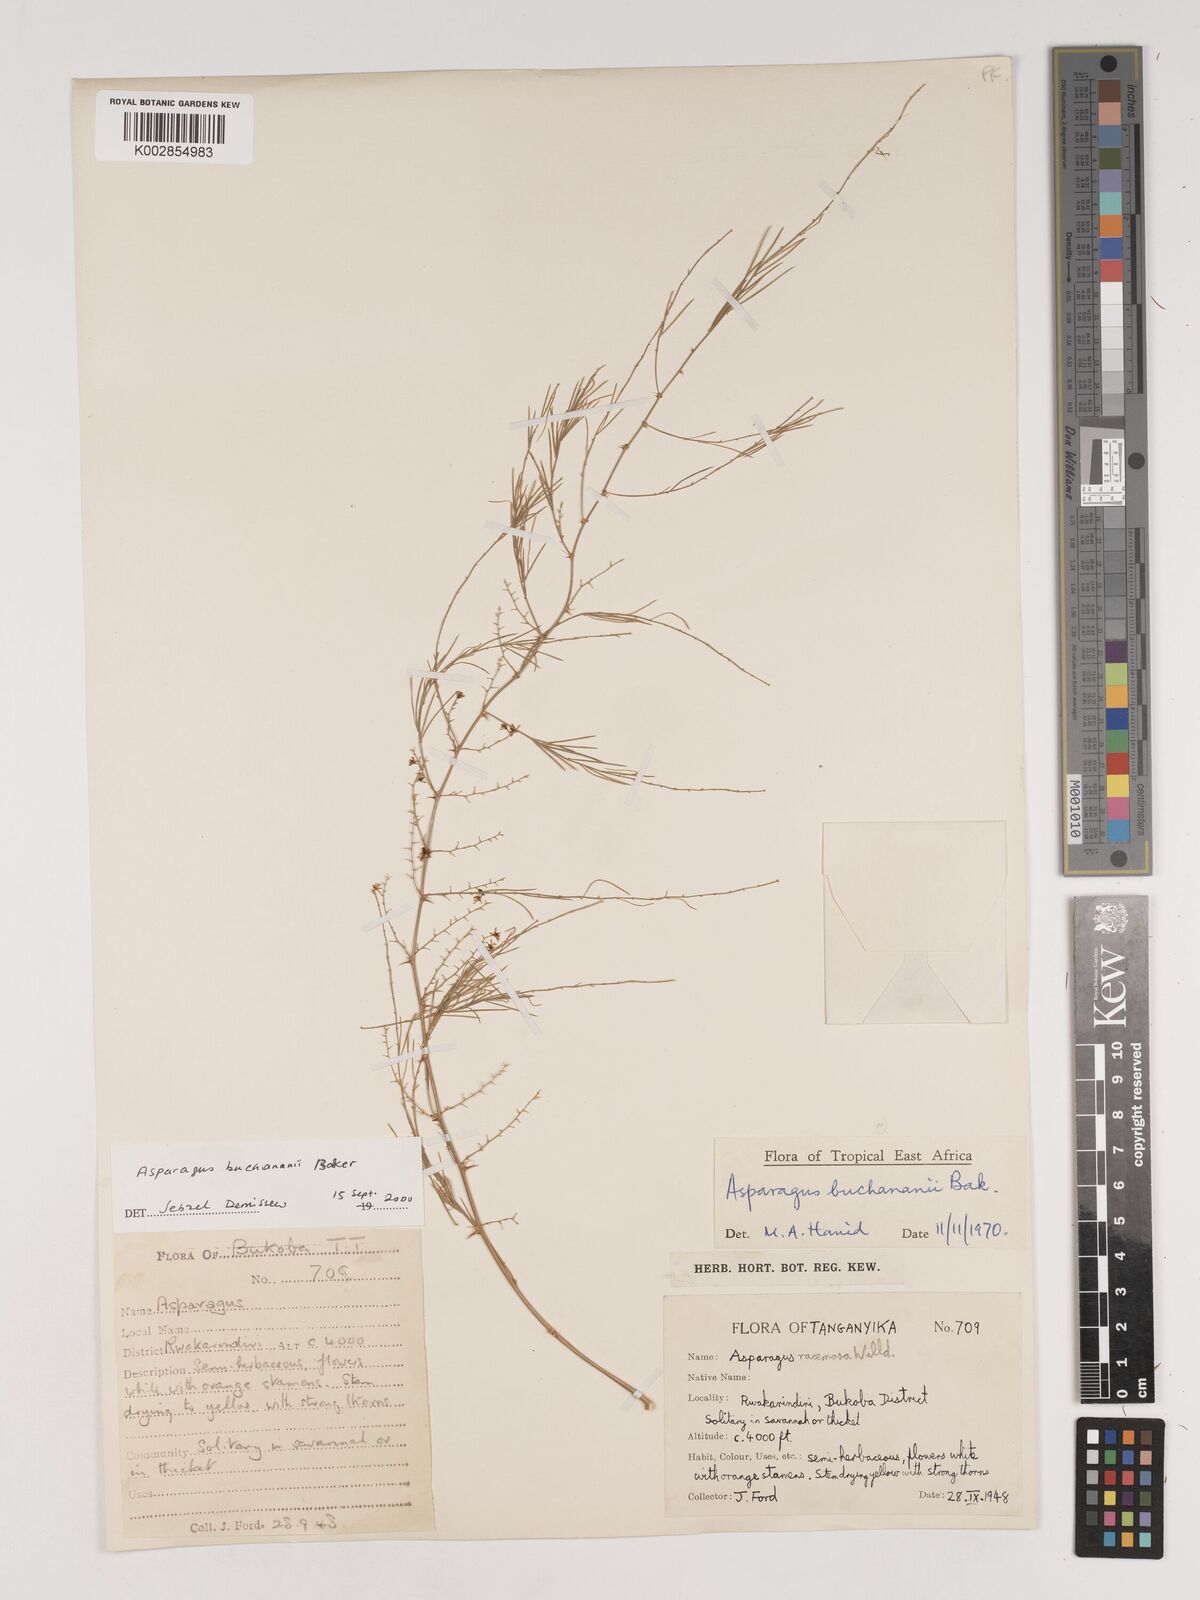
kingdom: Plantae
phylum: Tracheophyta
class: Liliopsida
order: Asparagales
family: Asparagaceae
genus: Asparagus
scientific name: Asparagus buchananii
